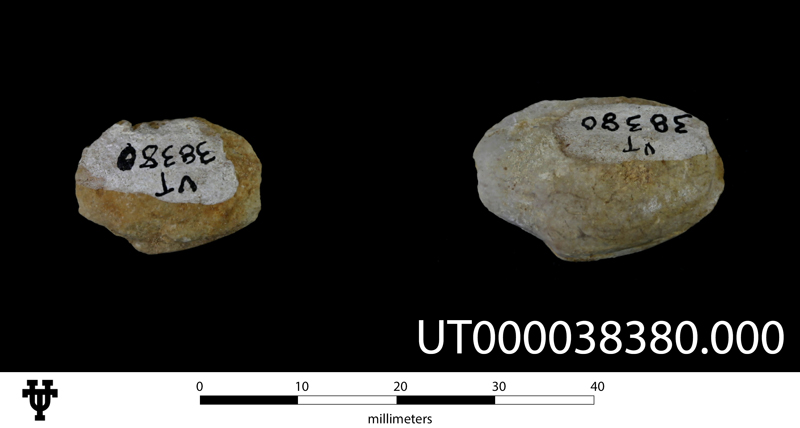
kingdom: Animalia
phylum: Mollusca
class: Bivalvia
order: Venerida
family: Veneridae
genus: Tapes
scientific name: Tapes
